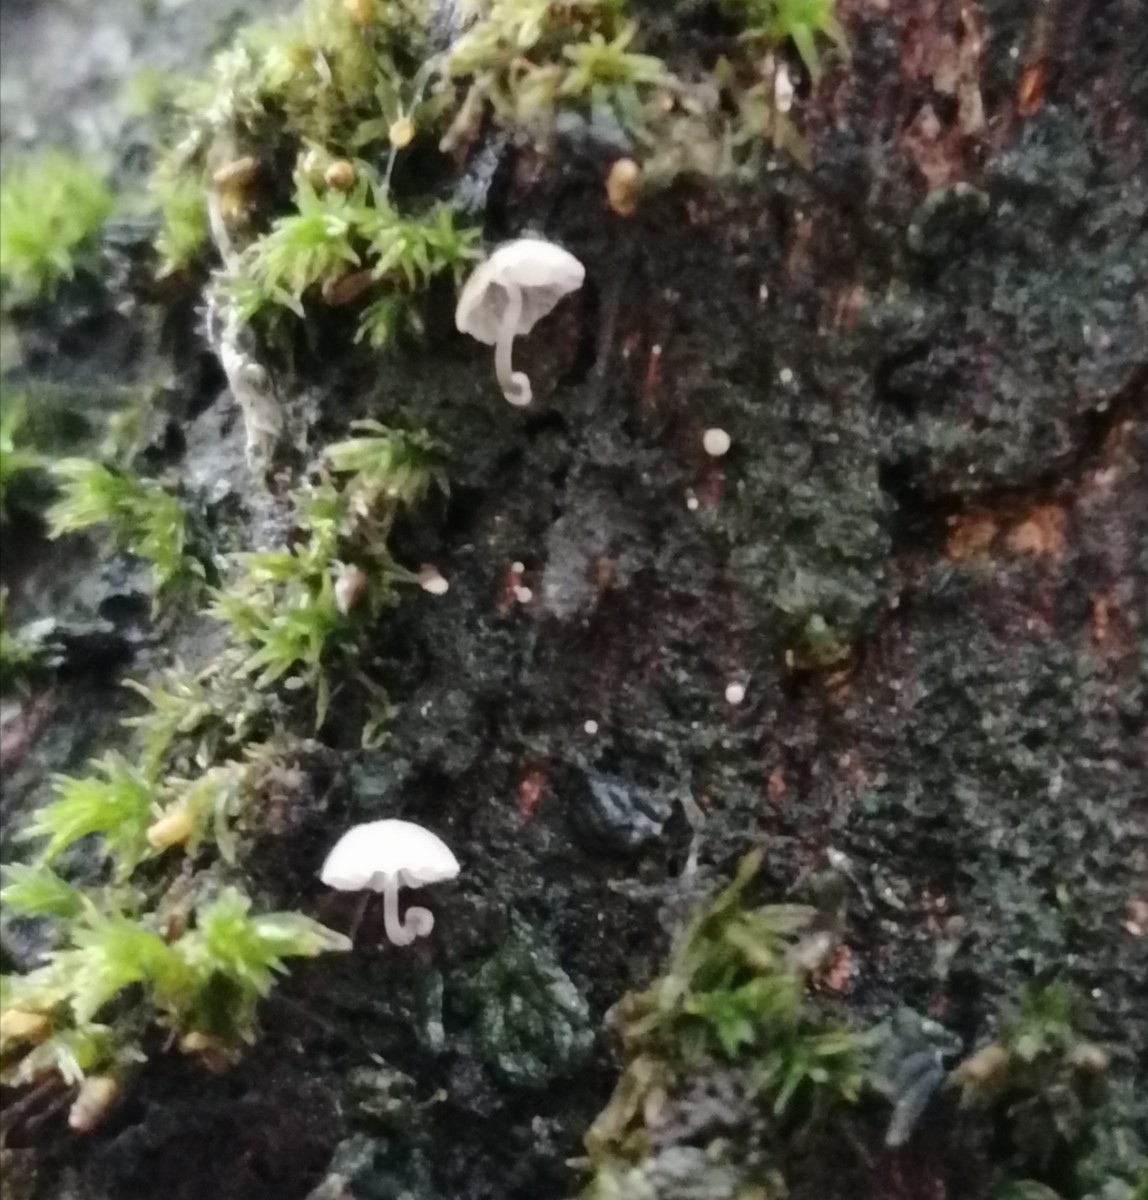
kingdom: Fungi
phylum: Basidiomycota
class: Agaricomycetes
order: Agaricales
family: Mycenaceae
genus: Mycena
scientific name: Mycena clavularis
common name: dunskivet huesvamp
